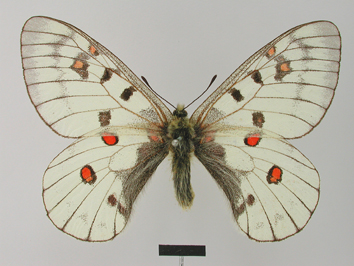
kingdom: Animalia
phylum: Arthropoda
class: Insecta
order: Lepidoptera
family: Papilionidae
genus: Parnassius
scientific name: Parnassius bremeri
